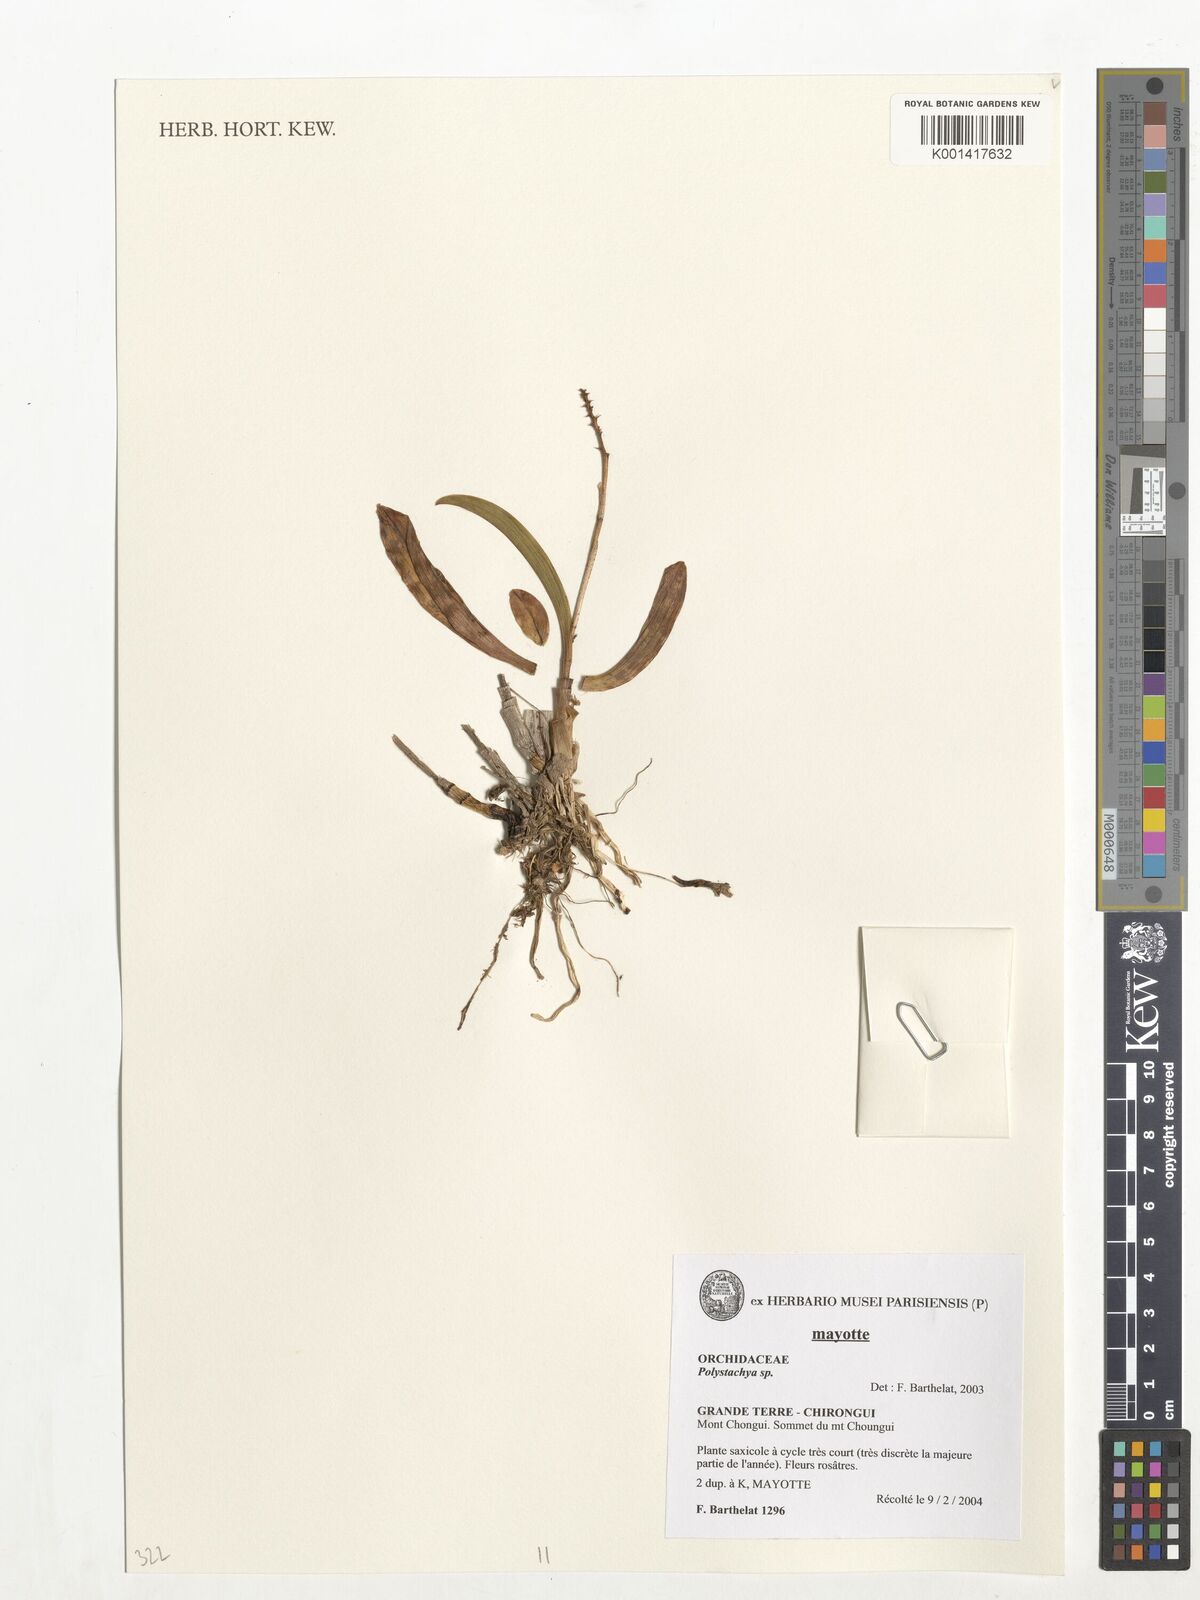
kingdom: Plantae
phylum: Tracheophyta
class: Liliopsida
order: Asparagales
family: Orchidaceae
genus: Polystachya
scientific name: Polystachya waterlotii
